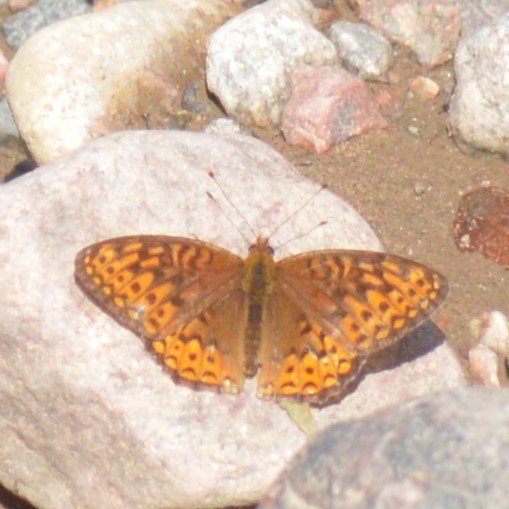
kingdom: Animalia
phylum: Arthropoda
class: Insecta
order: Lepidoptera
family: Nymphalidae
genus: Speyeria
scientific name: Speyeria atlantis
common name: Atlantis Fritillary
